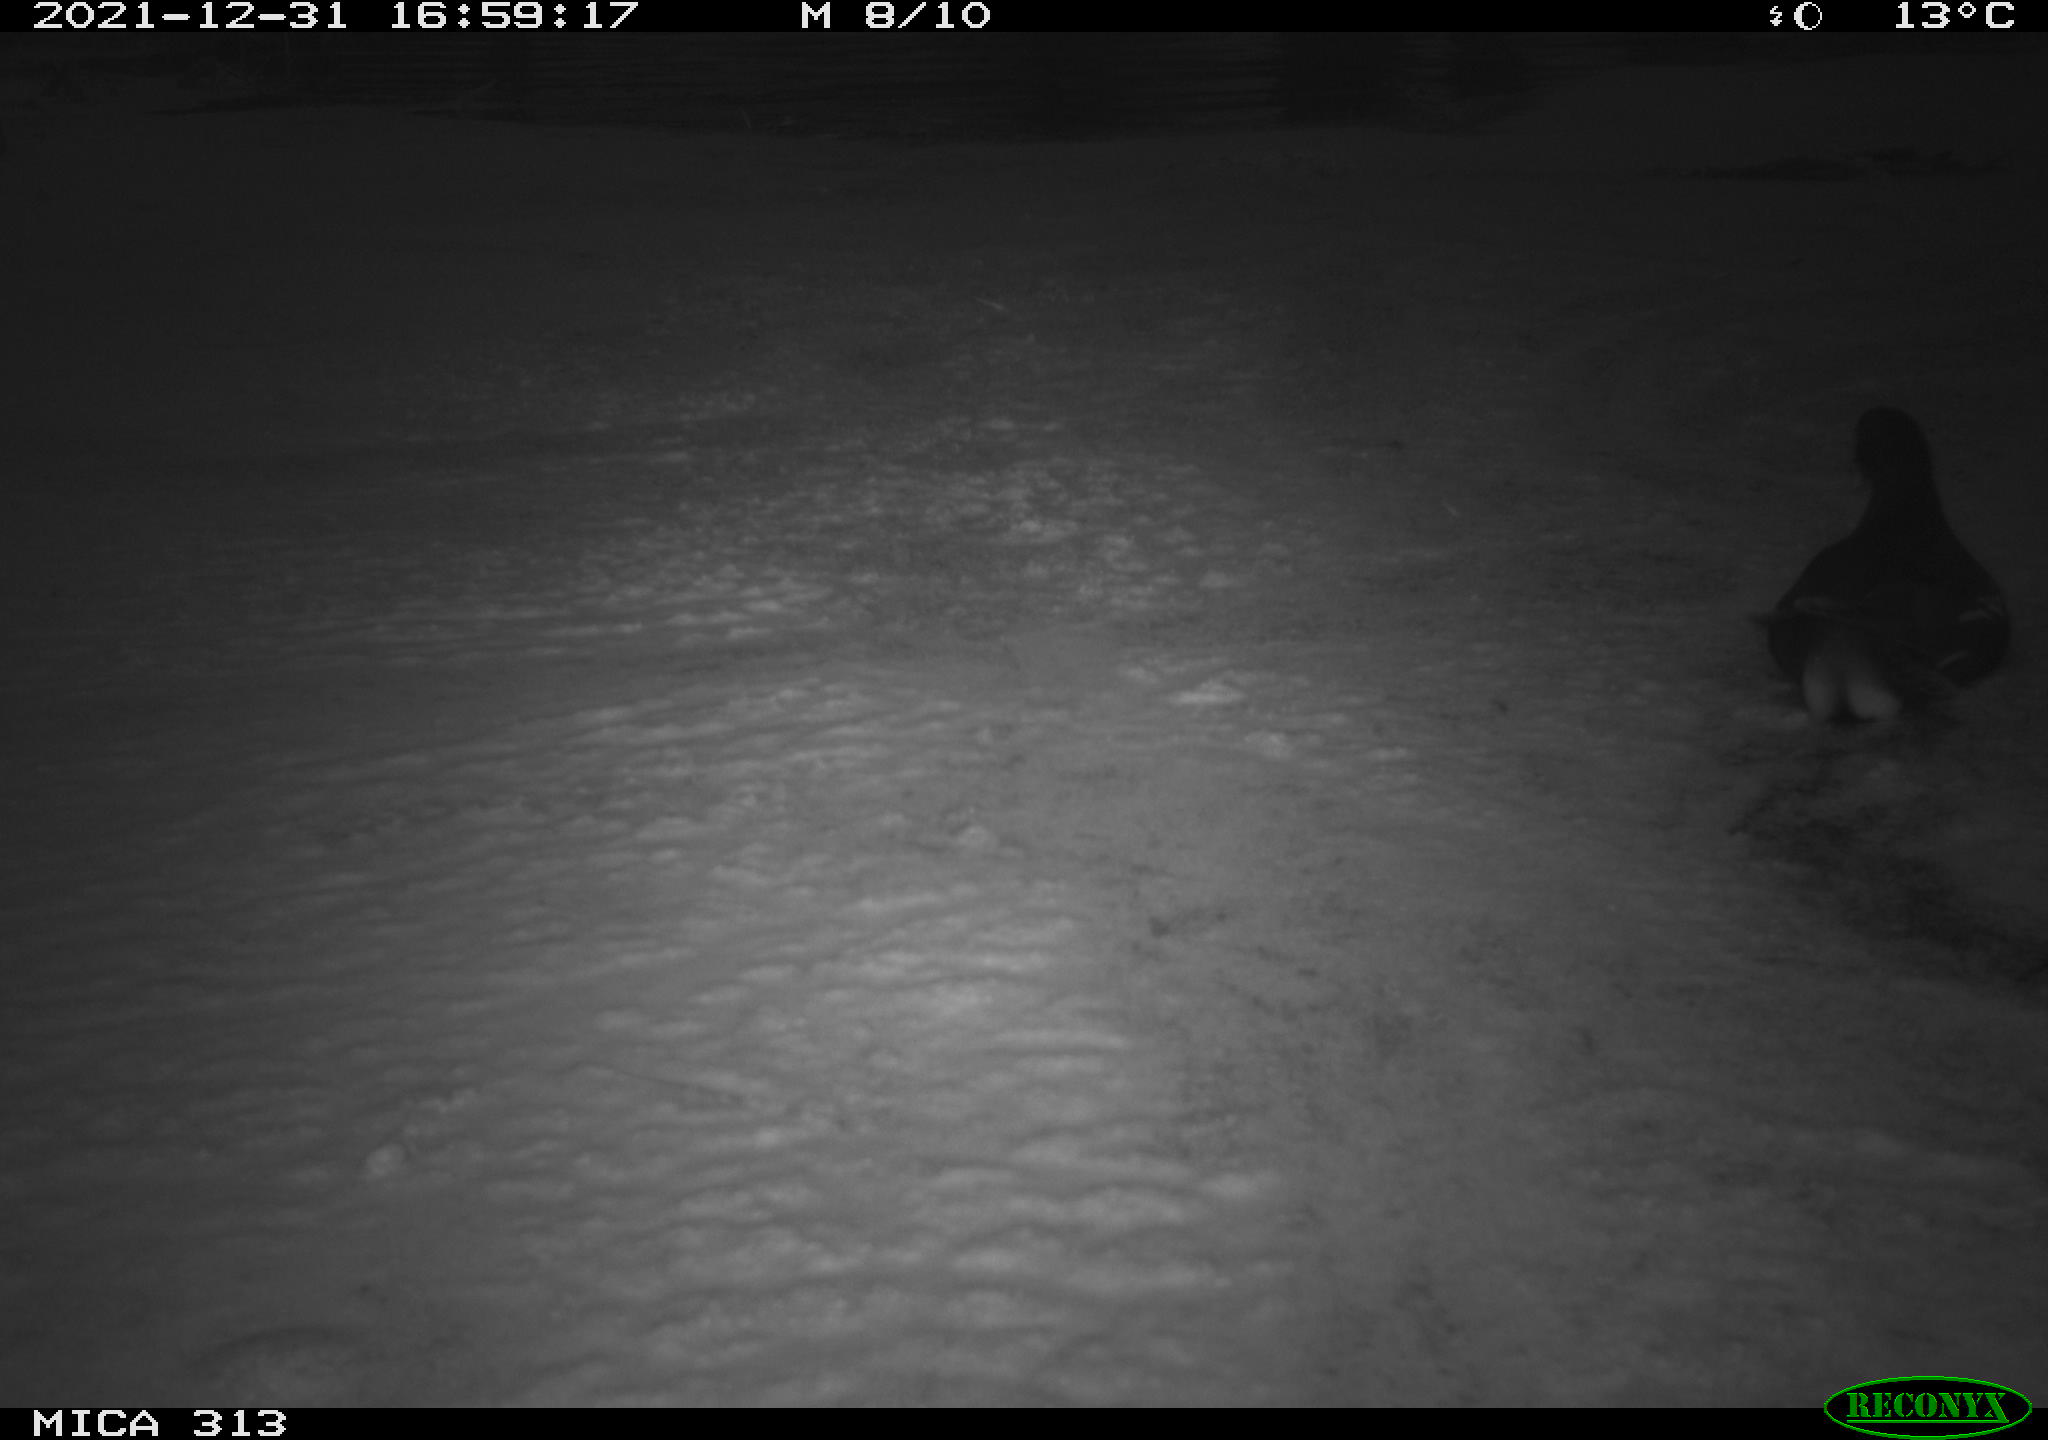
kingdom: Animalia
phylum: Chordata
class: Aves
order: Gruiformes
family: Rallidae
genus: Gallinula
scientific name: Gallinula chloropus
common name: Common moorhen
